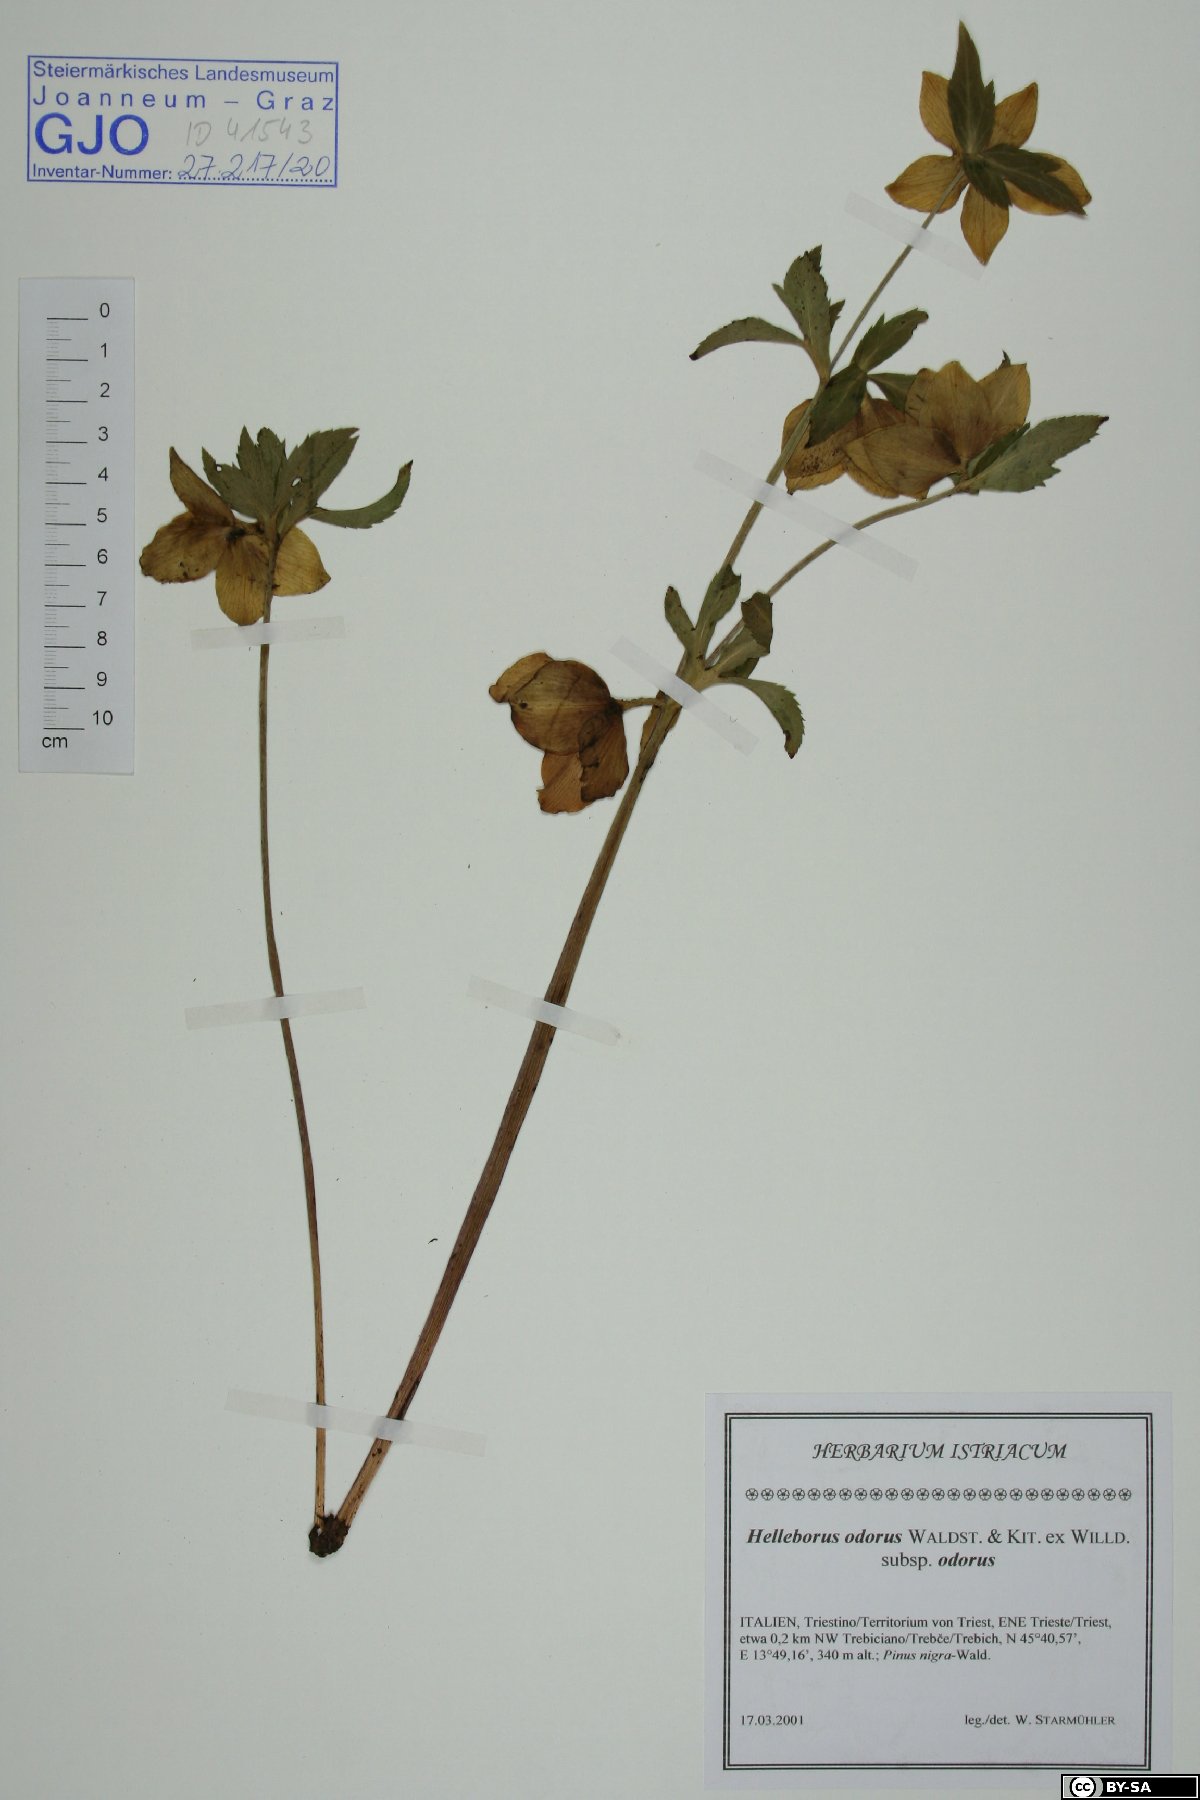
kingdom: Plantae
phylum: Tracheophyta
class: Magnoliopsida
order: Ranunculales
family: Ranunculaceae
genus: Helleborus
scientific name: Helleborus odorus
